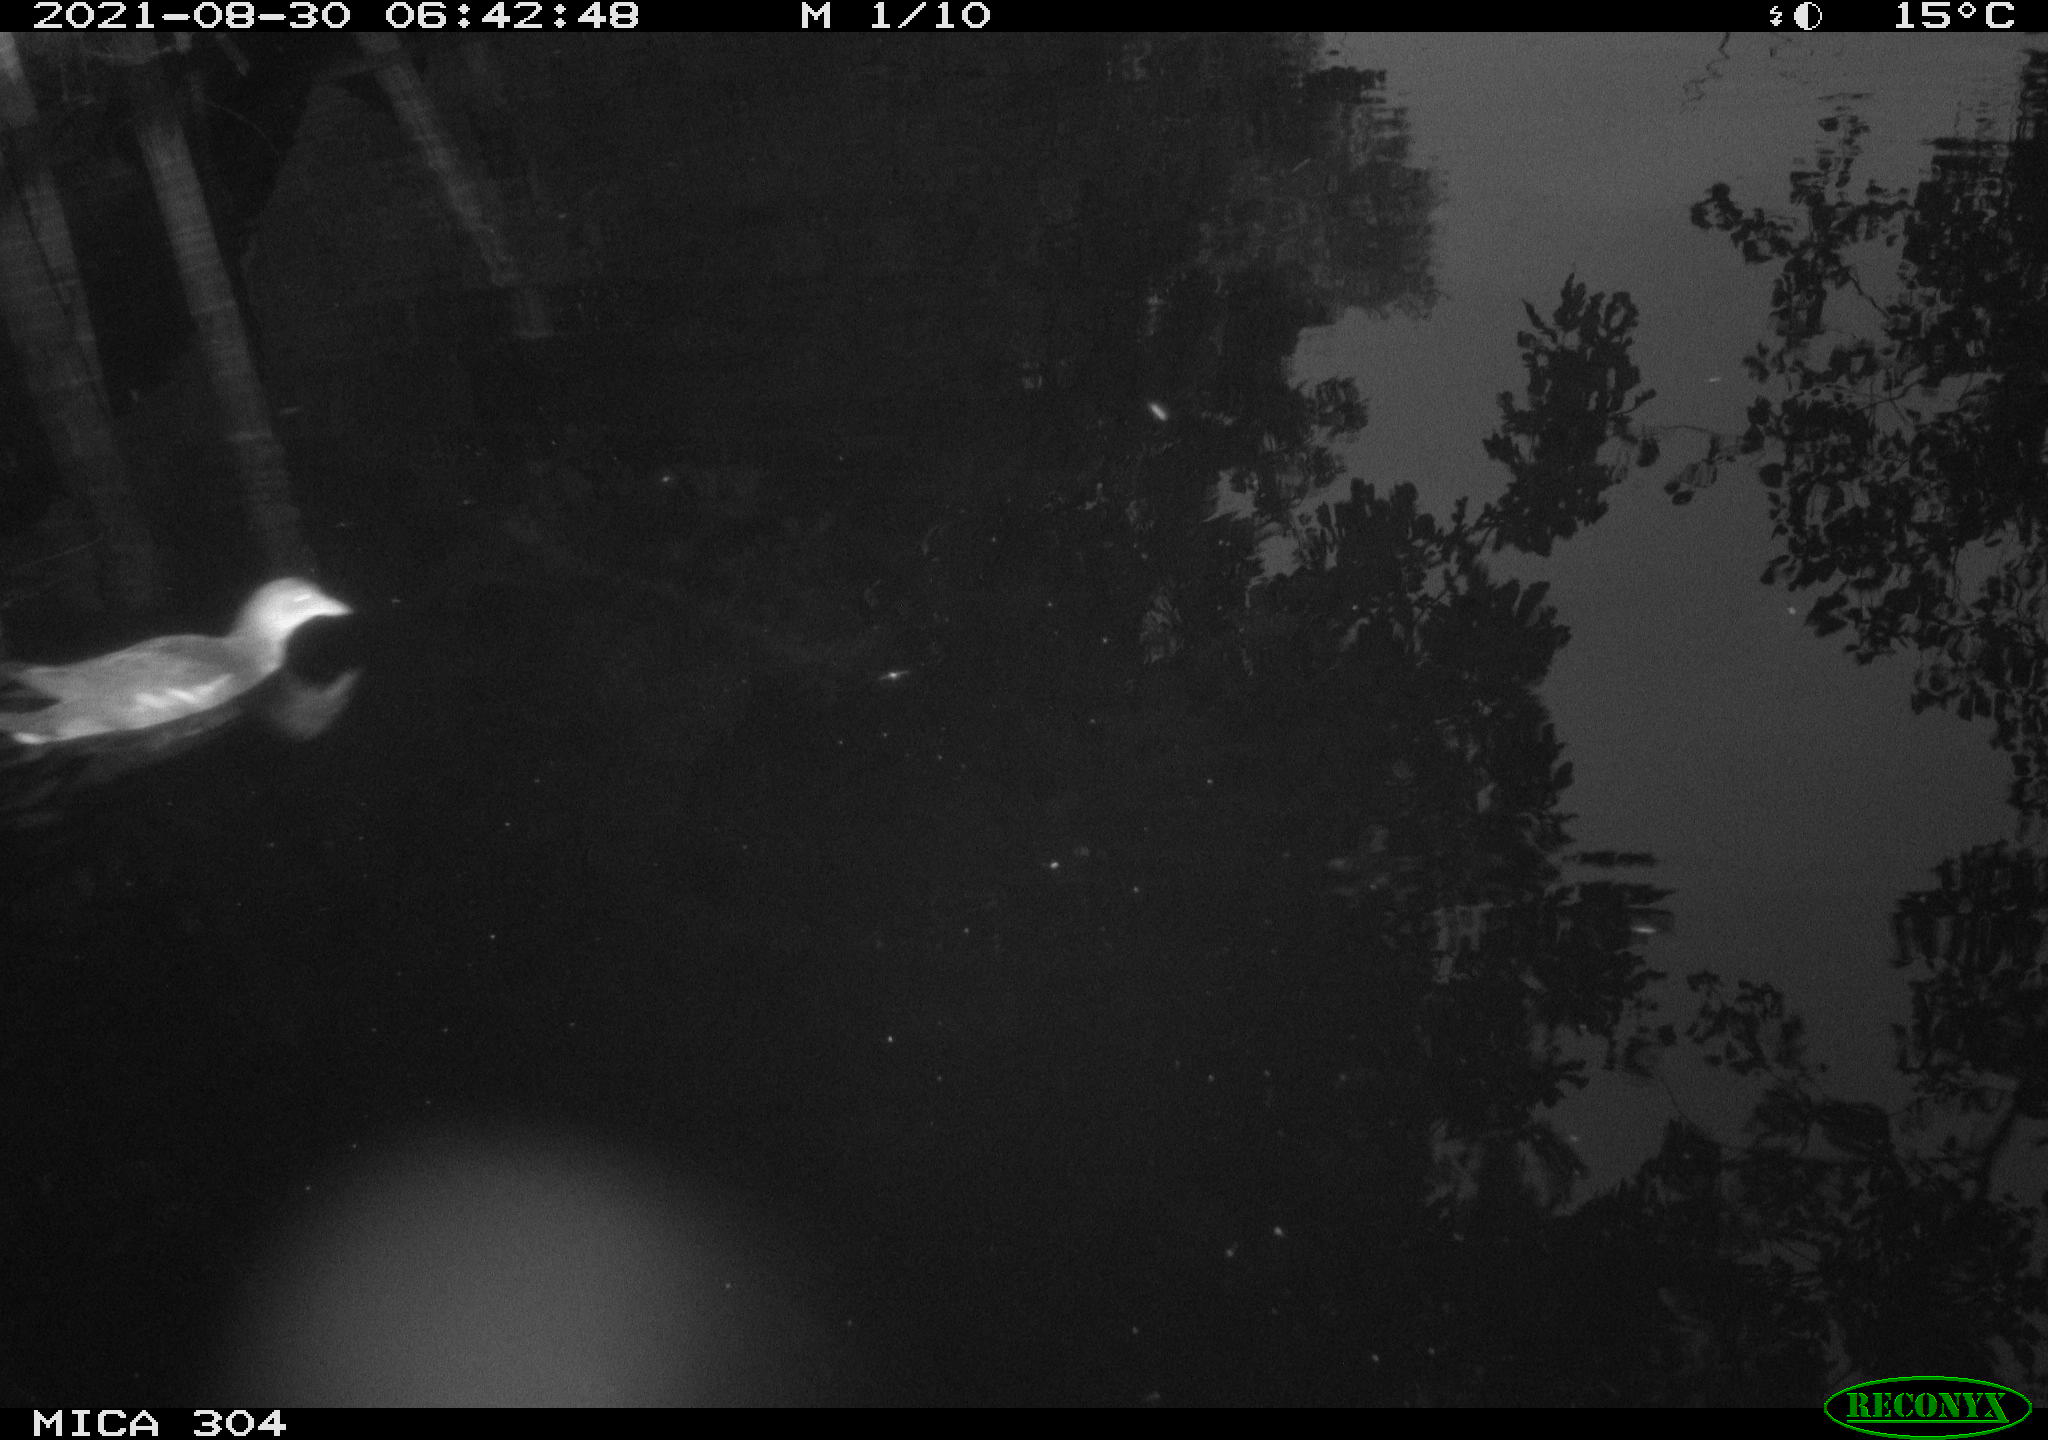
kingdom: Animalia
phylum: Chordata
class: Aves
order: Gruiformes
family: Rallidae
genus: Gallinula
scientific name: Gallinula chloropus
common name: Common moorhen
